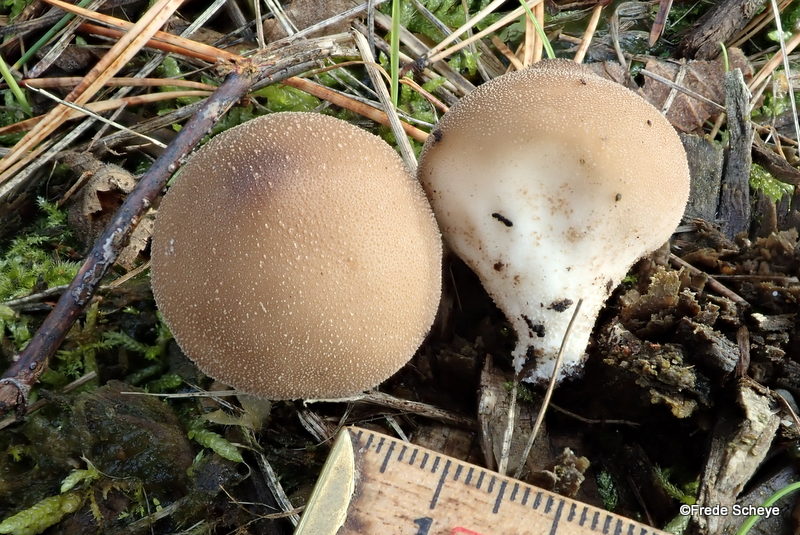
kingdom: Fungi
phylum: Basidiomycota
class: Agaricomycetes
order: Agaricales
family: Lycoperdaceae
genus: Apioperdon
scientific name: Apioperdon pyriforme
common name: pære-støvbold
